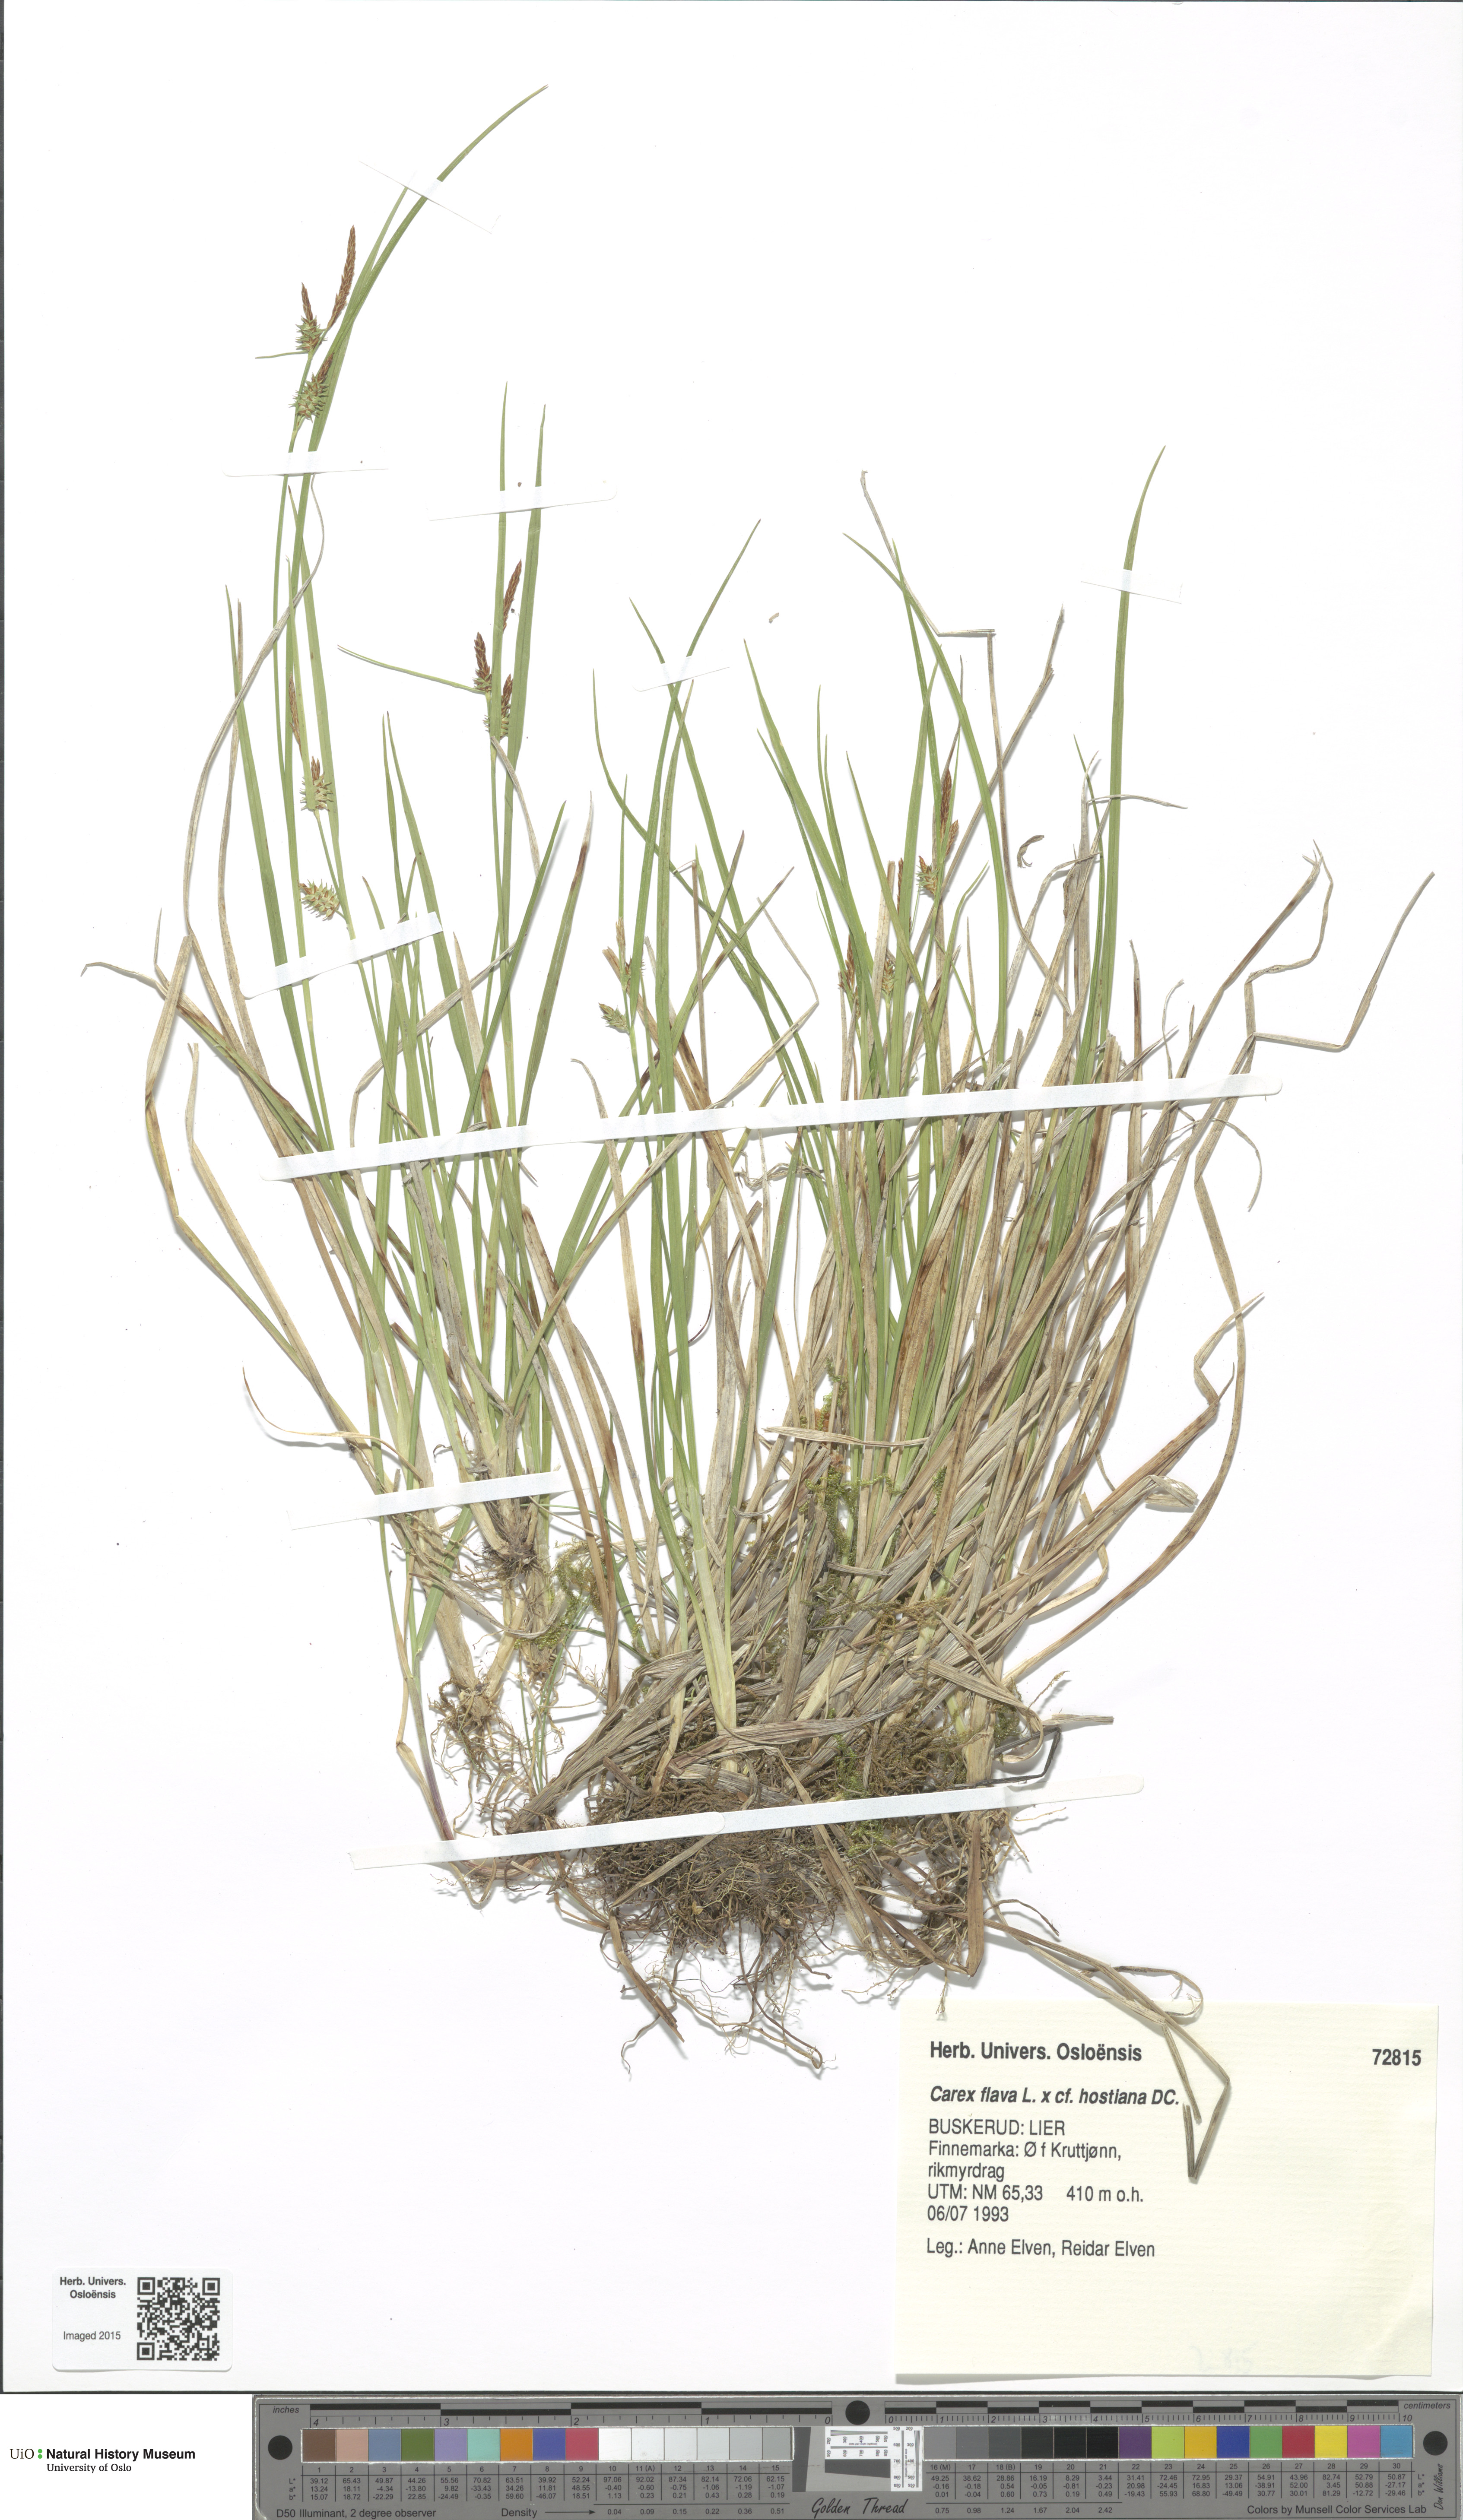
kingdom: Plantae
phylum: Tracheophyta
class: Liliopsida
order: Poales
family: Cyperaceae
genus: Carex
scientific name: Carex
